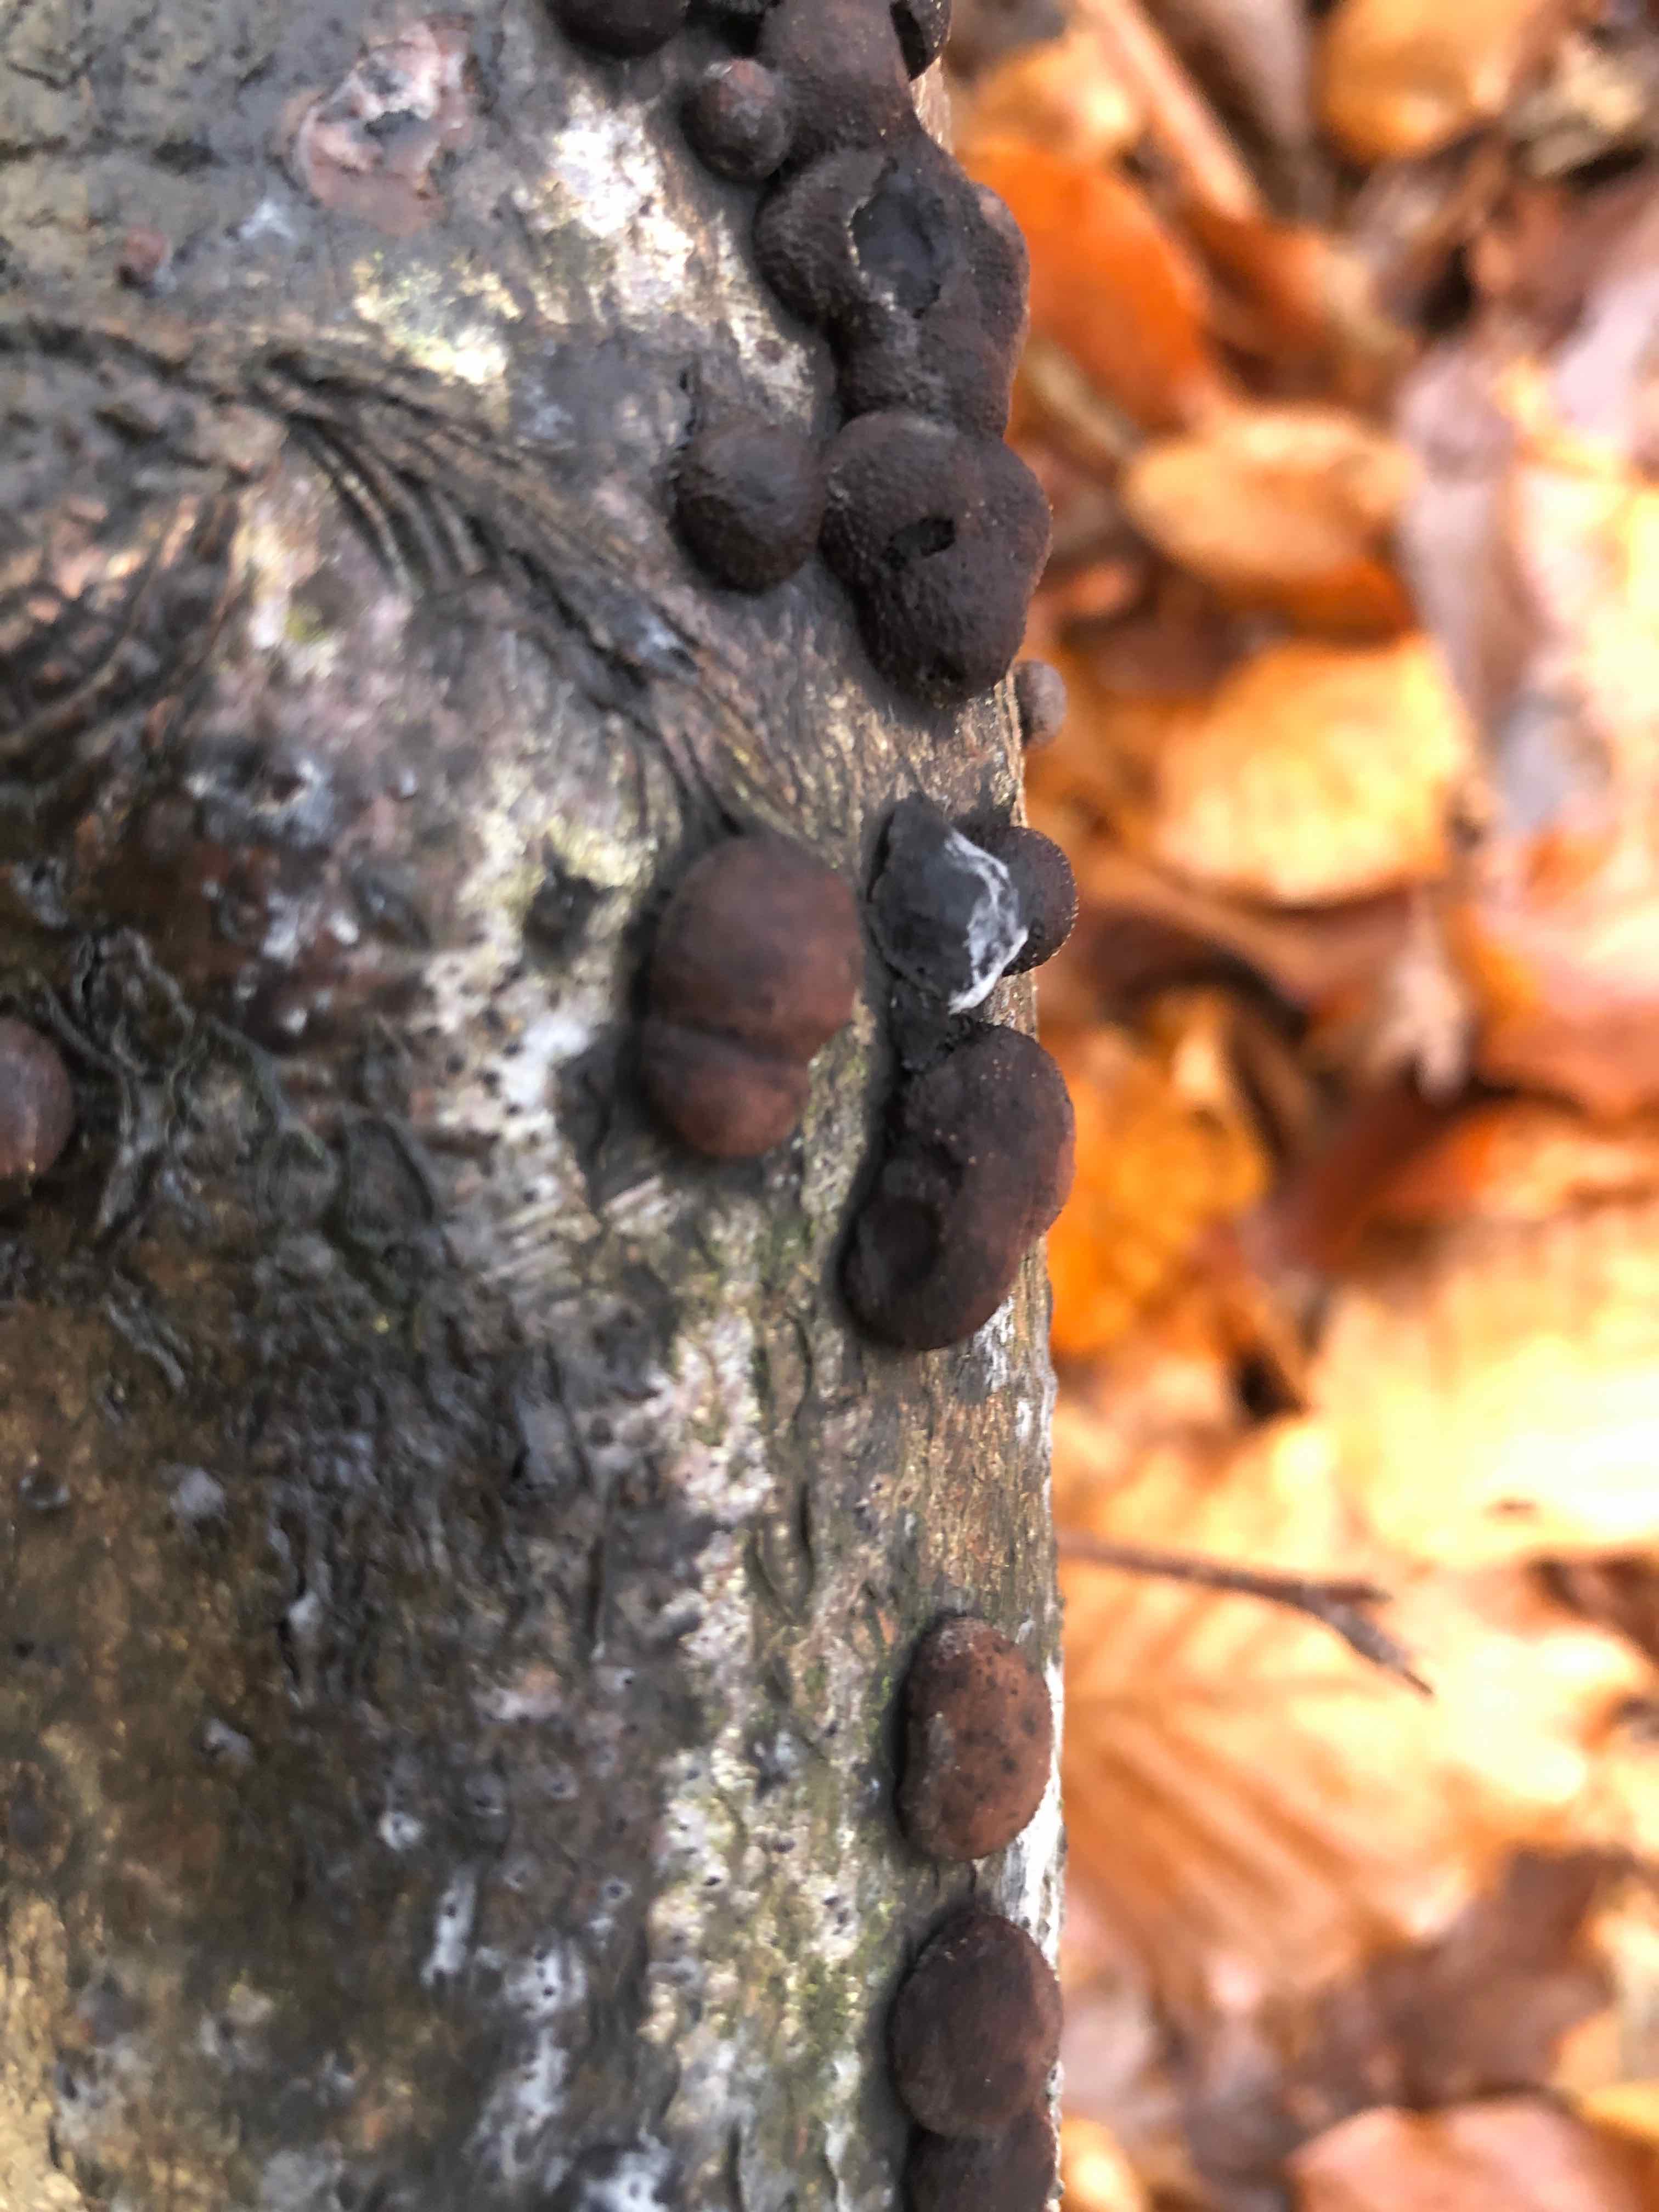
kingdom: Fungi
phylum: Ascomycota
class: Sordariomycetes
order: Xylariales
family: Hypoxylaceae
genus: Hypoxylon
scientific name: Hypoxylon fragiforme
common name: kuljordbær
